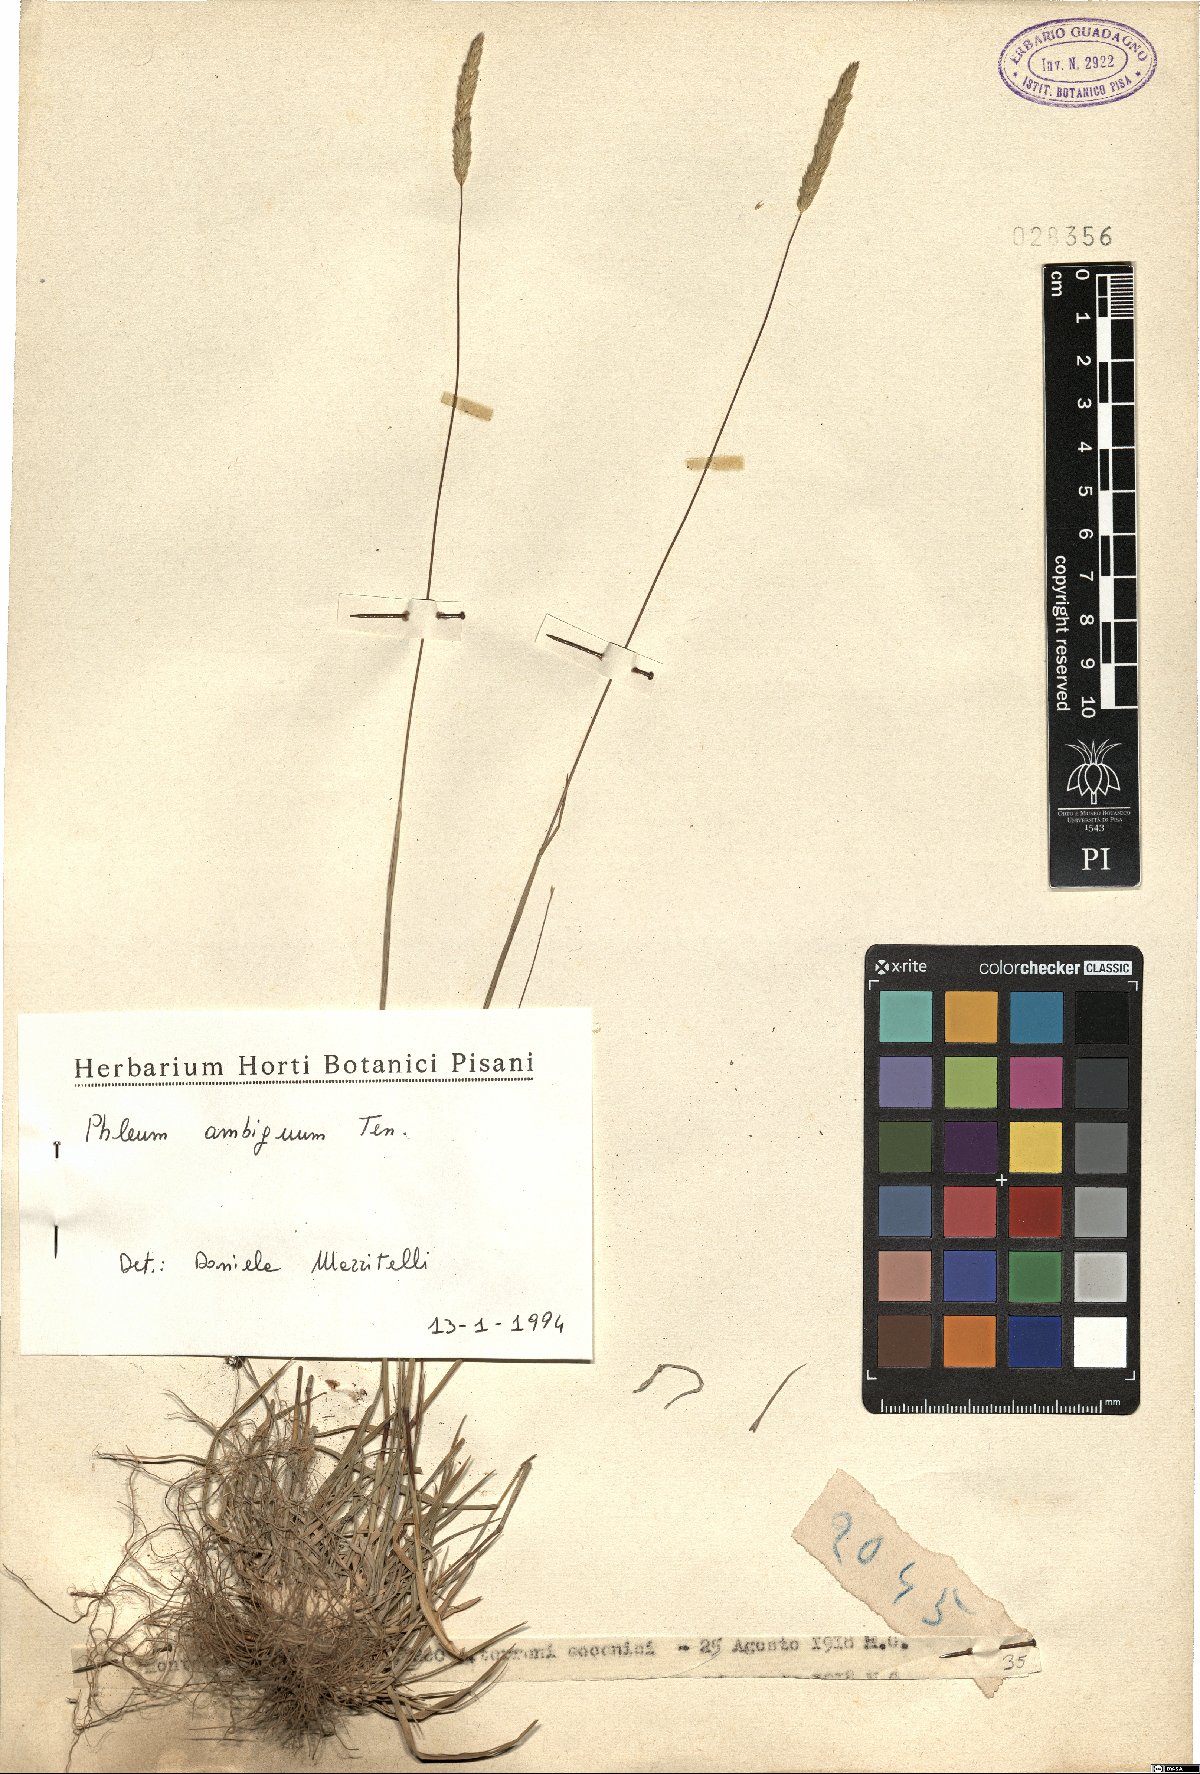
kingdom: Plantae
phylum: Tracheophyta
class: Liliopsida
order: Poales
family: Poaceae
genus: Phleum
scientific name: Phleum hirsutum
